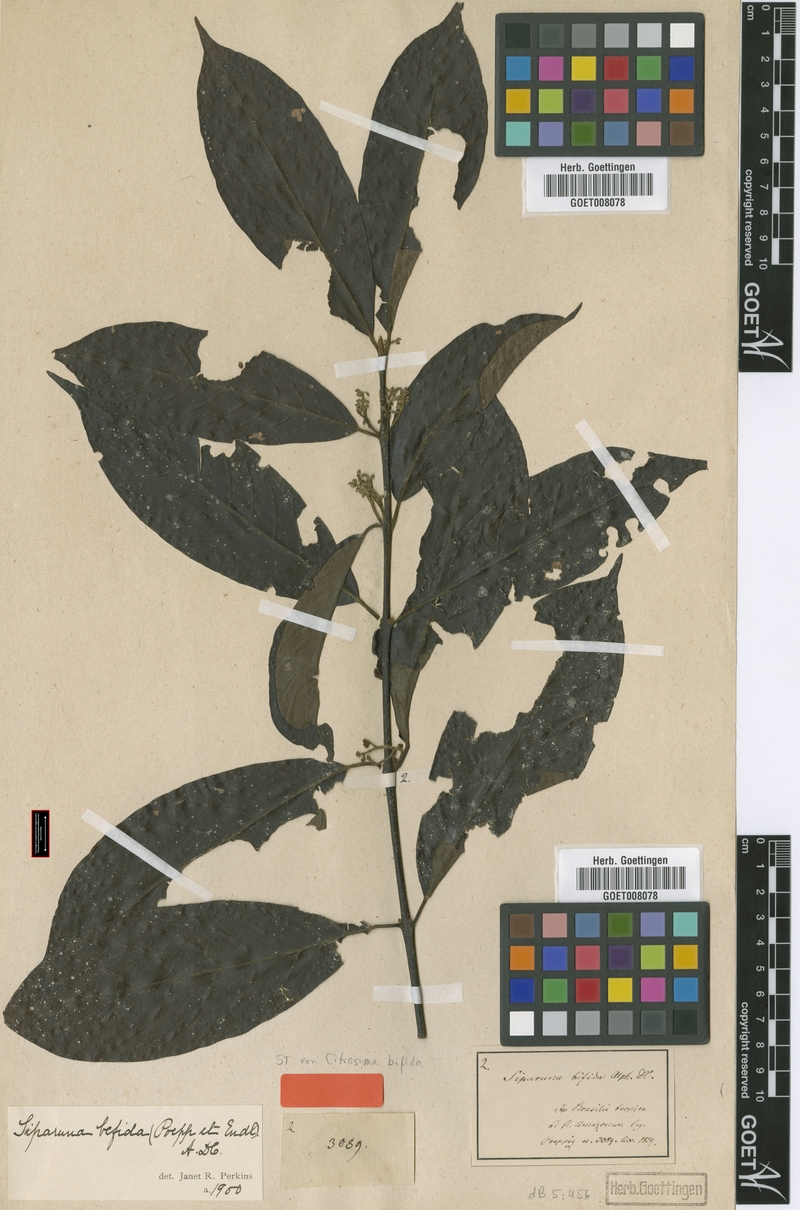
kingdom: Plantae
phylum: Tracheophyta
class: Magnoliopsida
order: Laurales
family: Siparunaceae
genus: Siparuna
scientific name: Siparuna bifida
